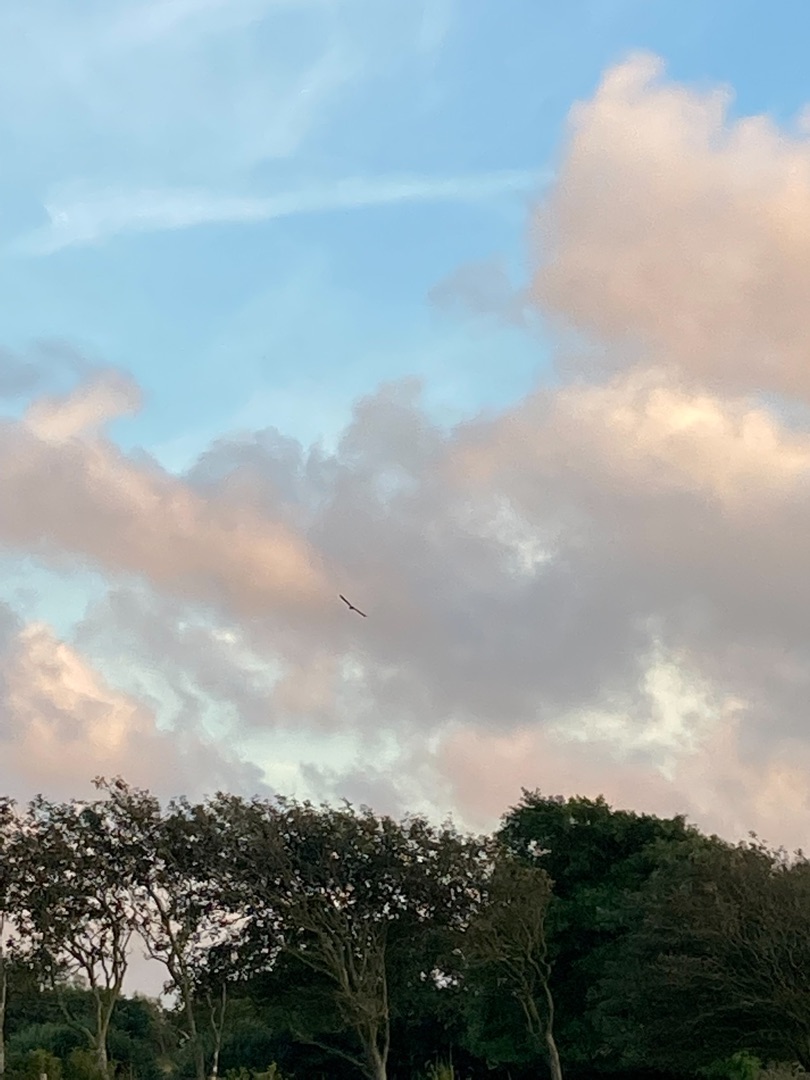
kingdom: Animalia
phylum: Chordata
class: Aves
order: Suliformes
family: Phalacrocoracidae
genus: Phalacrocorax
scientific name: Phalacrocorax carbo
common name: Skarv
